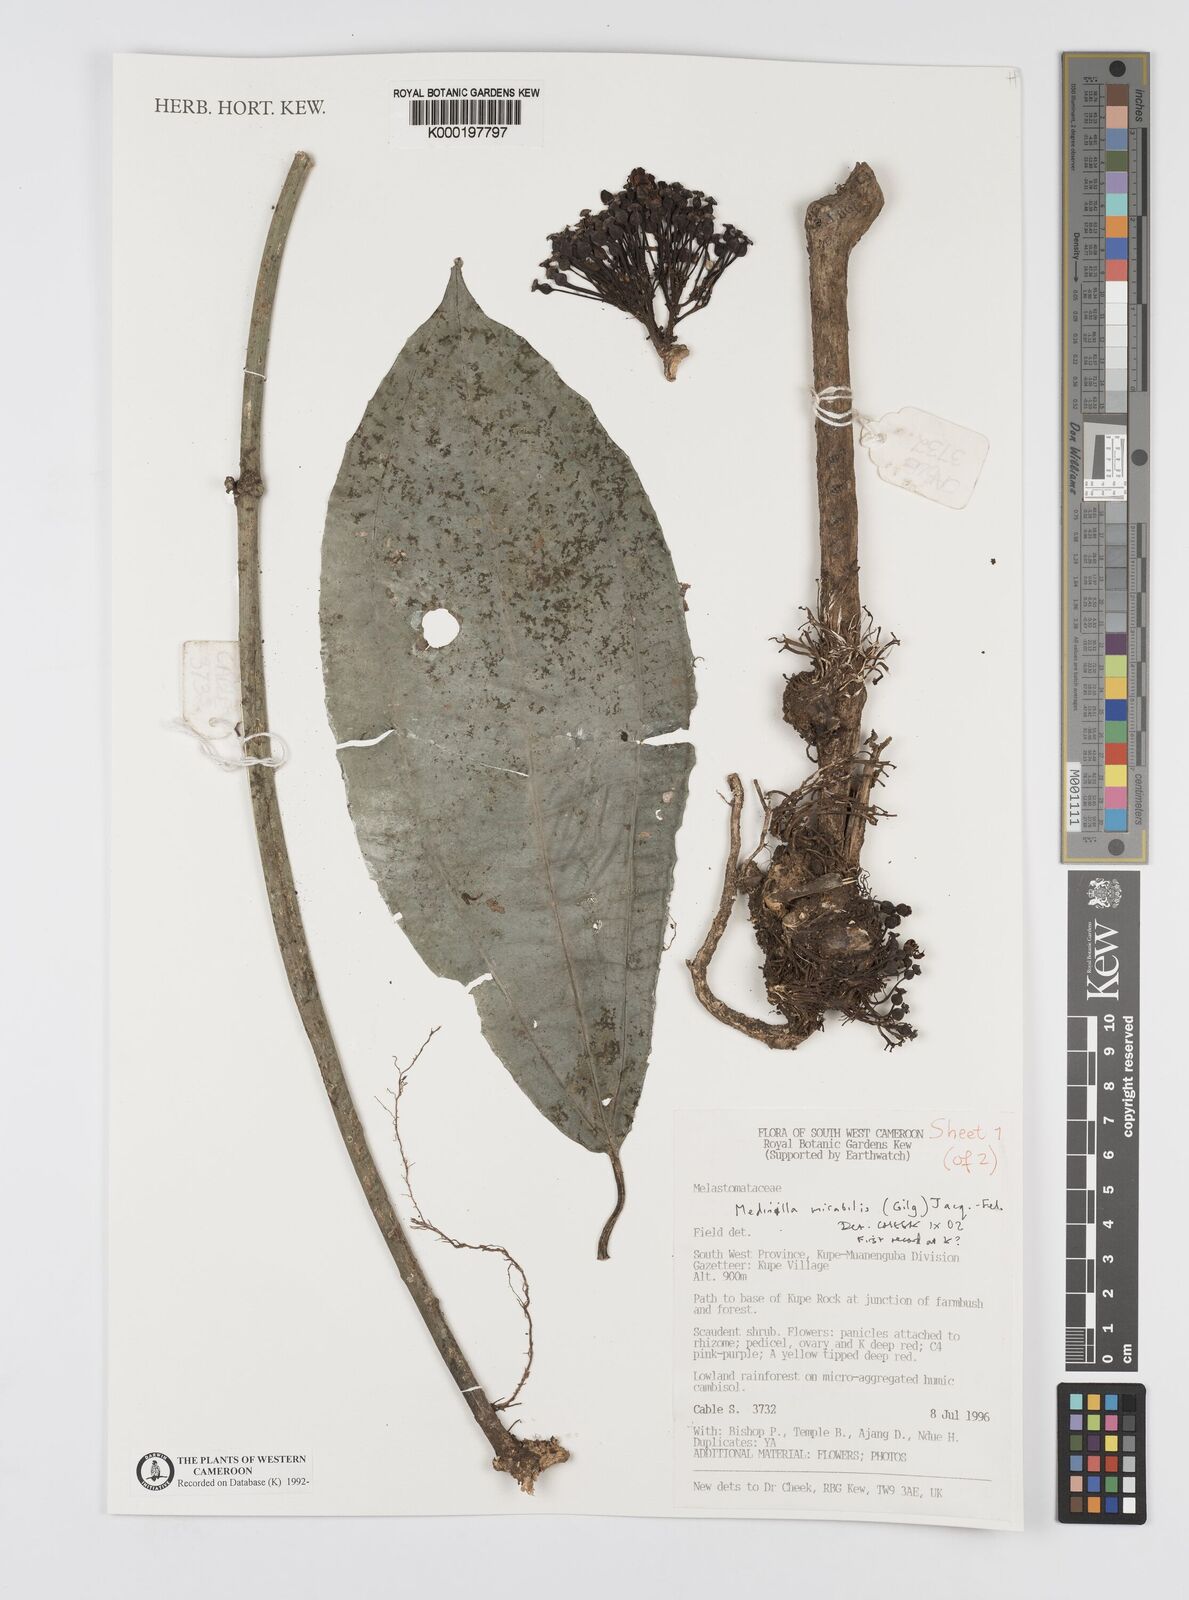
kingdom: Plantae
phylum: Tracheophyta
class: Magnoliopsida
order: Myrtales
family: Melastomataceae
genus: Medinilla
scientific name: Medinilla
